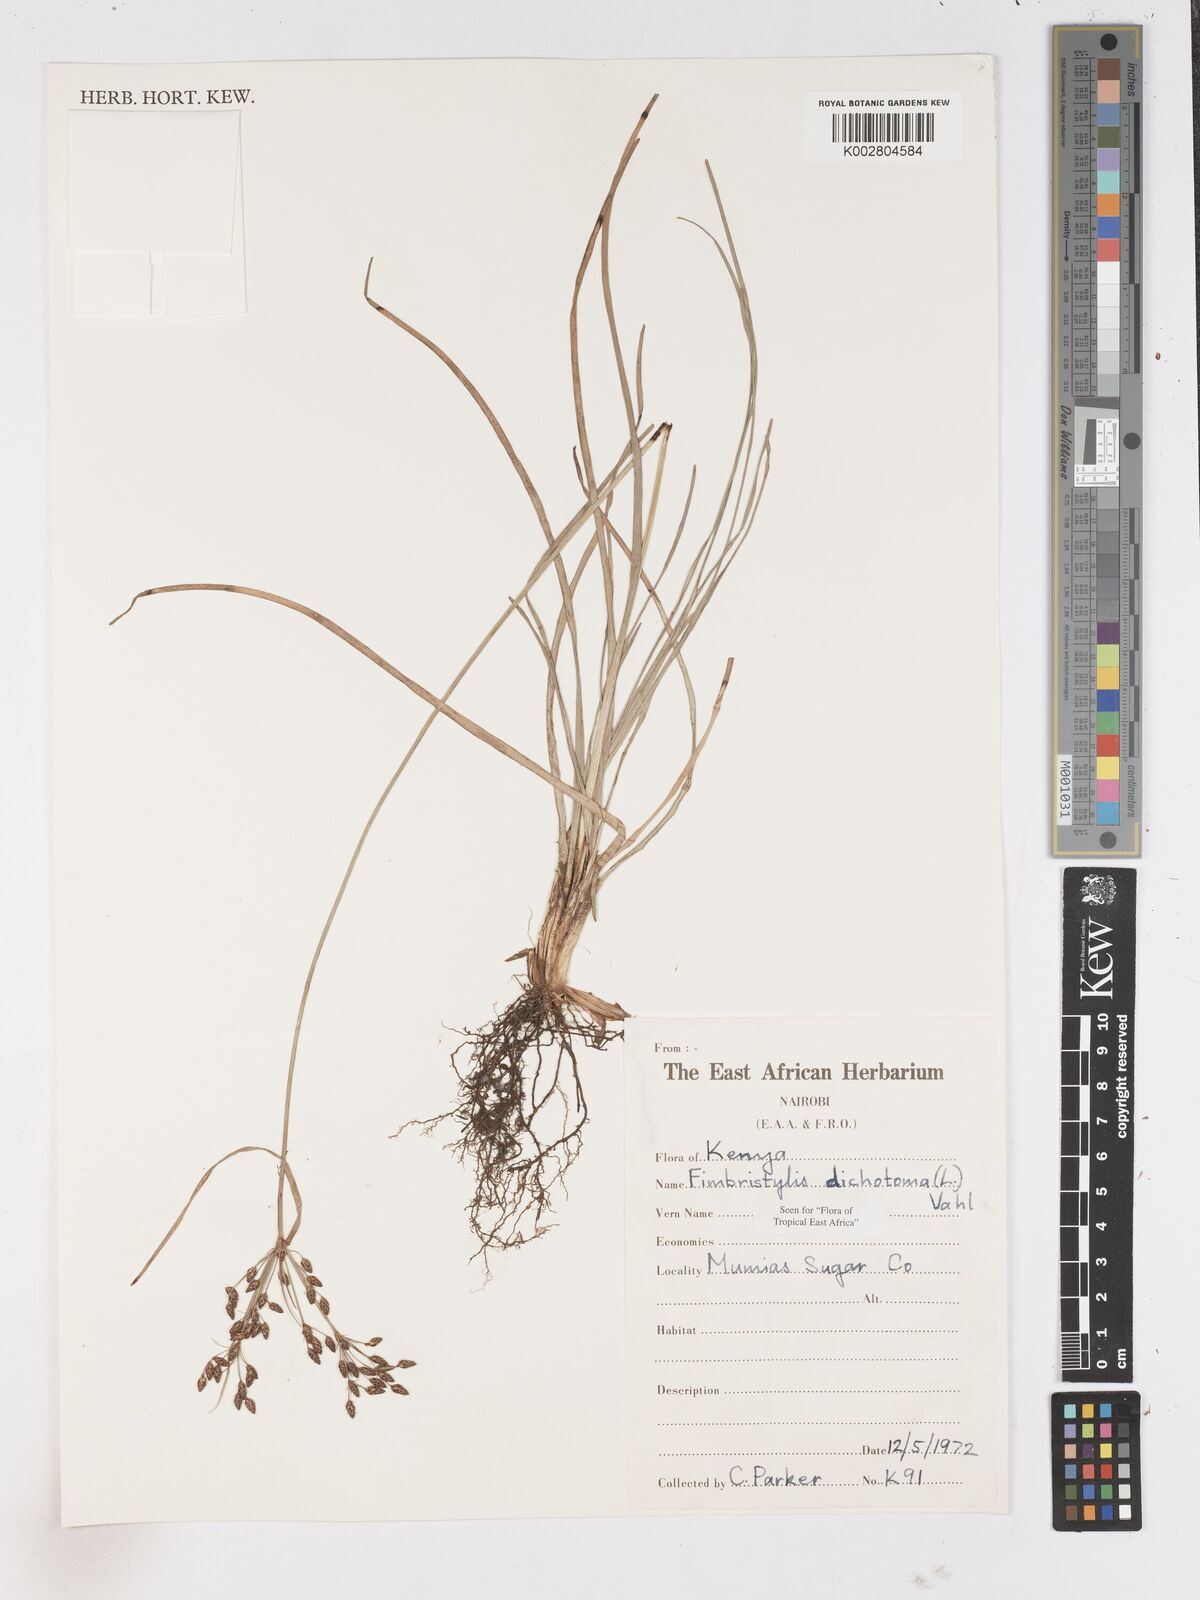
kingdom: Plantae
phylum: Tracheophyta
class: Liliopsida
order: Poales
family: Cyperaceae
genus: Fimbristylis
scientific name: Fimbristylis dichotoma
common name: Forked fimbry
